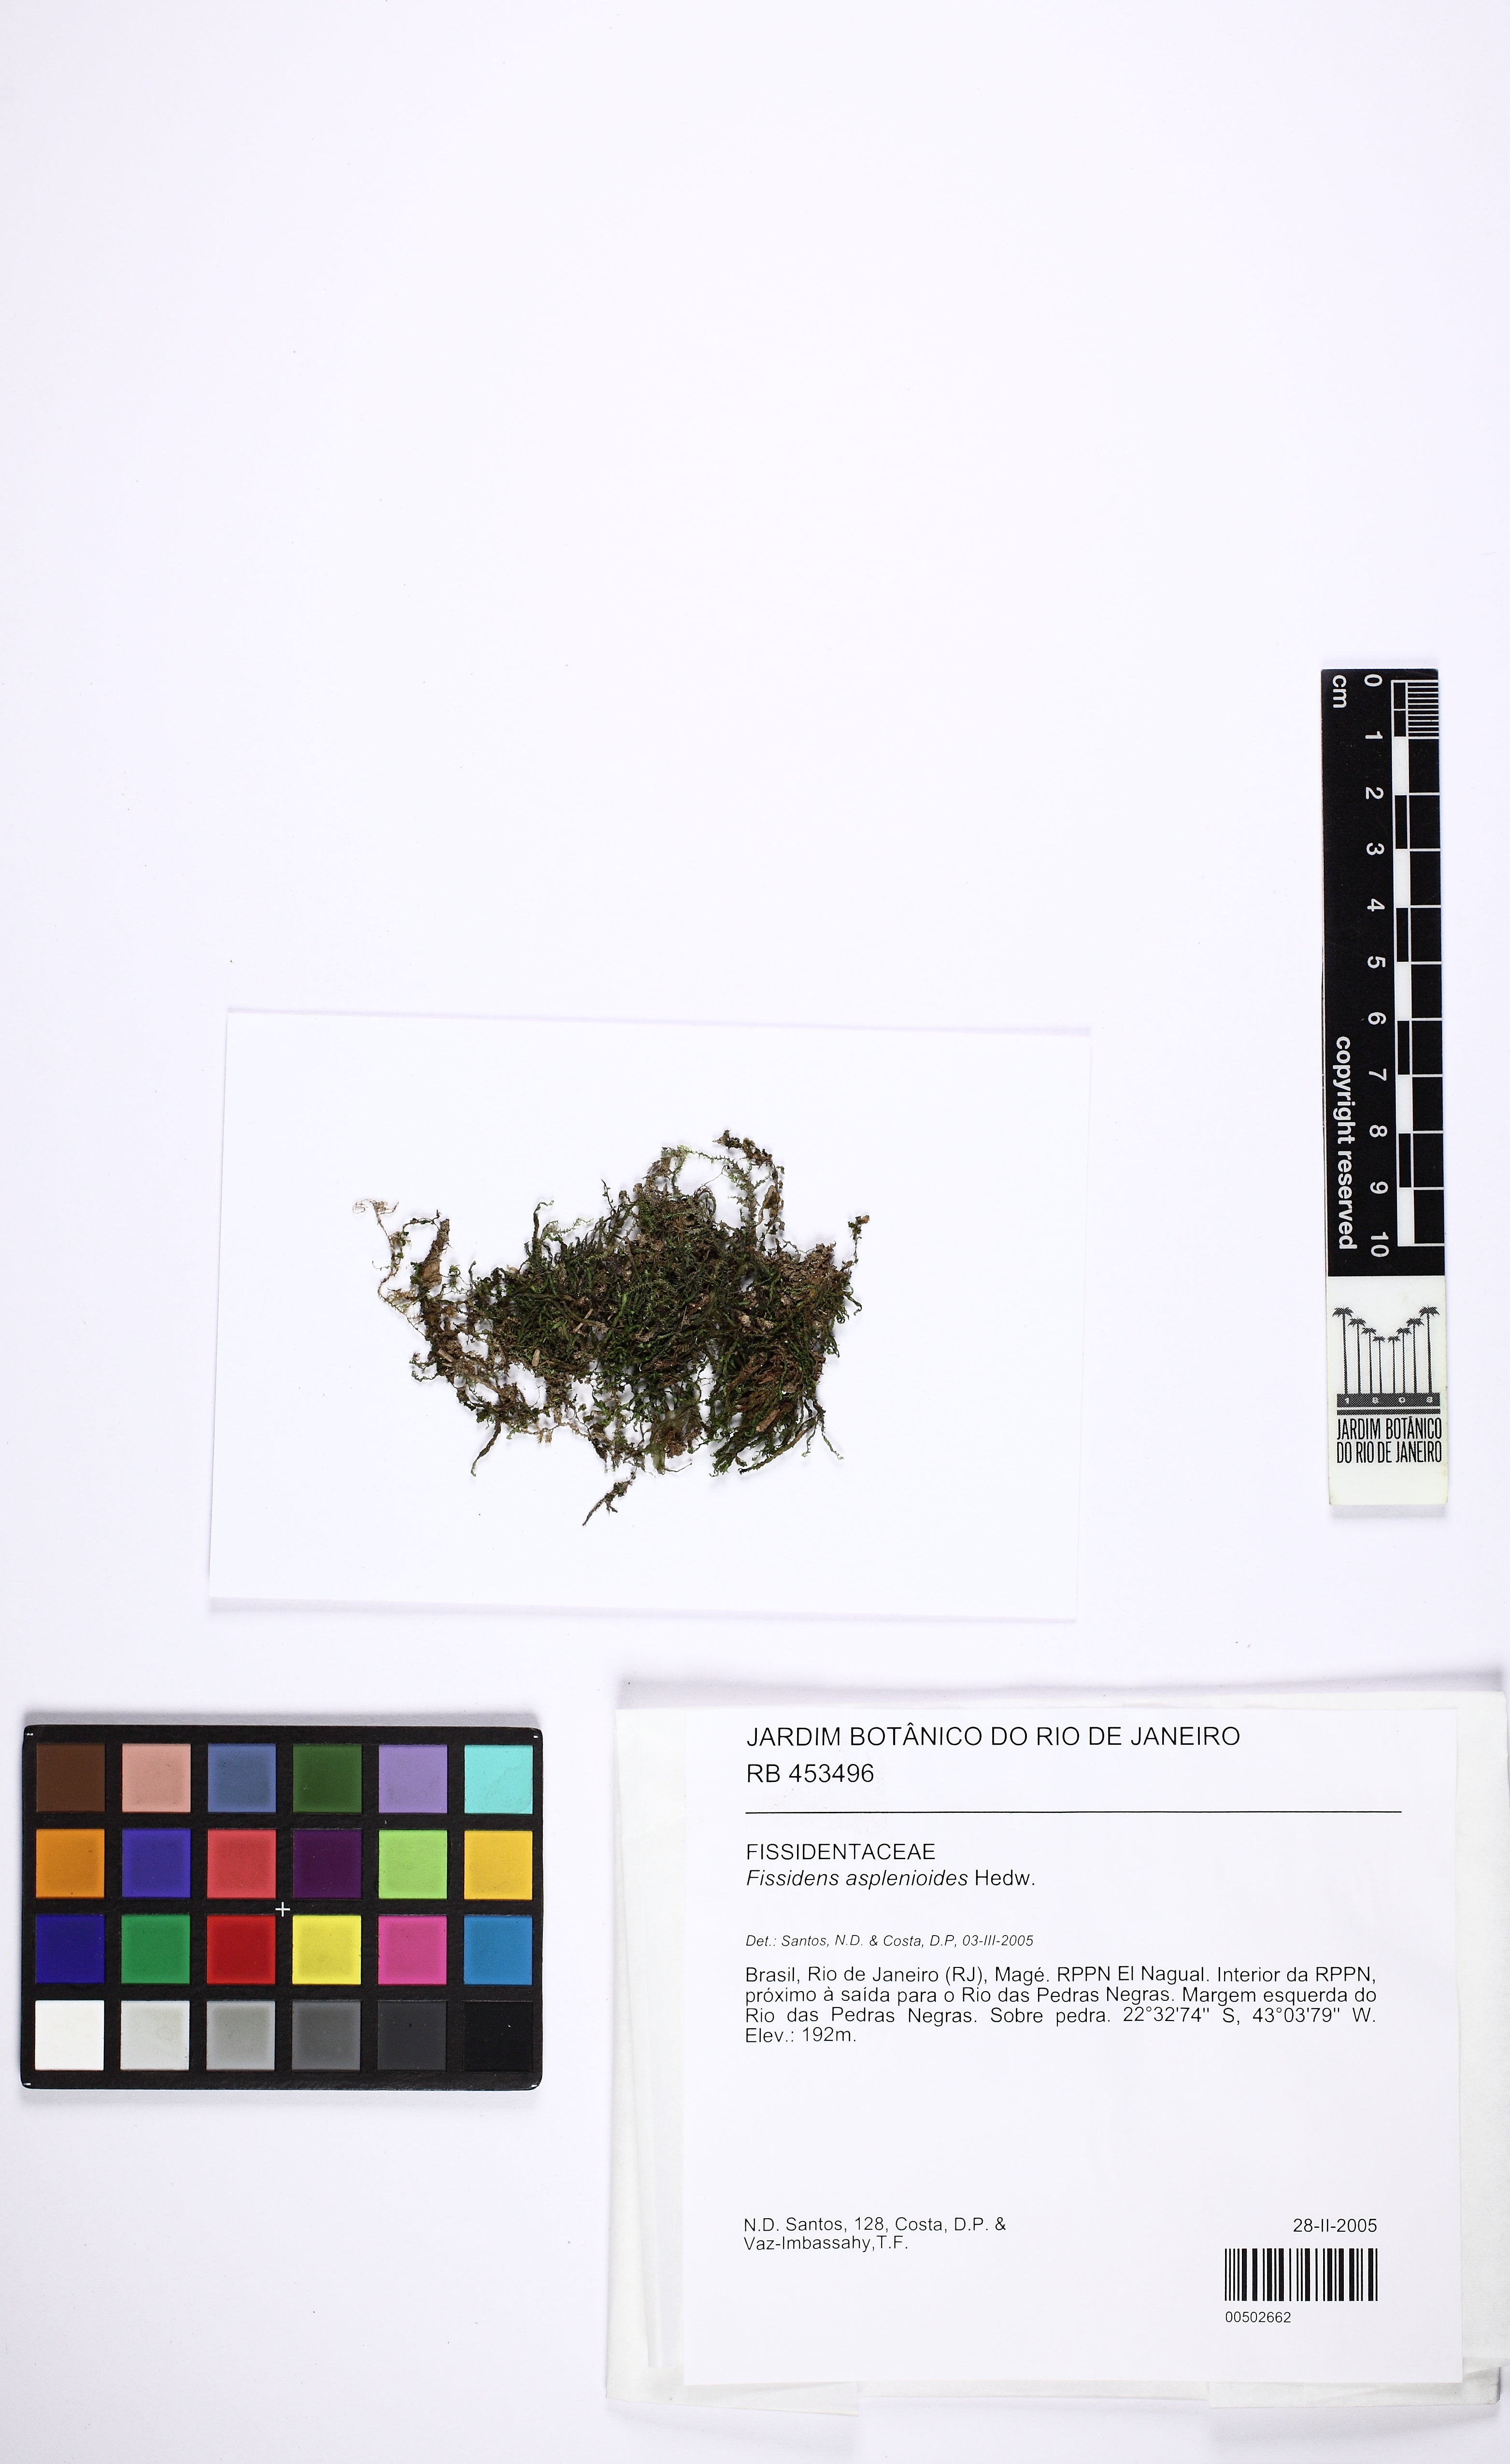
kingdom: Plantae
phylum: Bryophyta
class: Bryopsida
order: Dicranales
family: Fissidentaceae
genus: Fissidens
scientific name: Fissidens asplenioides
